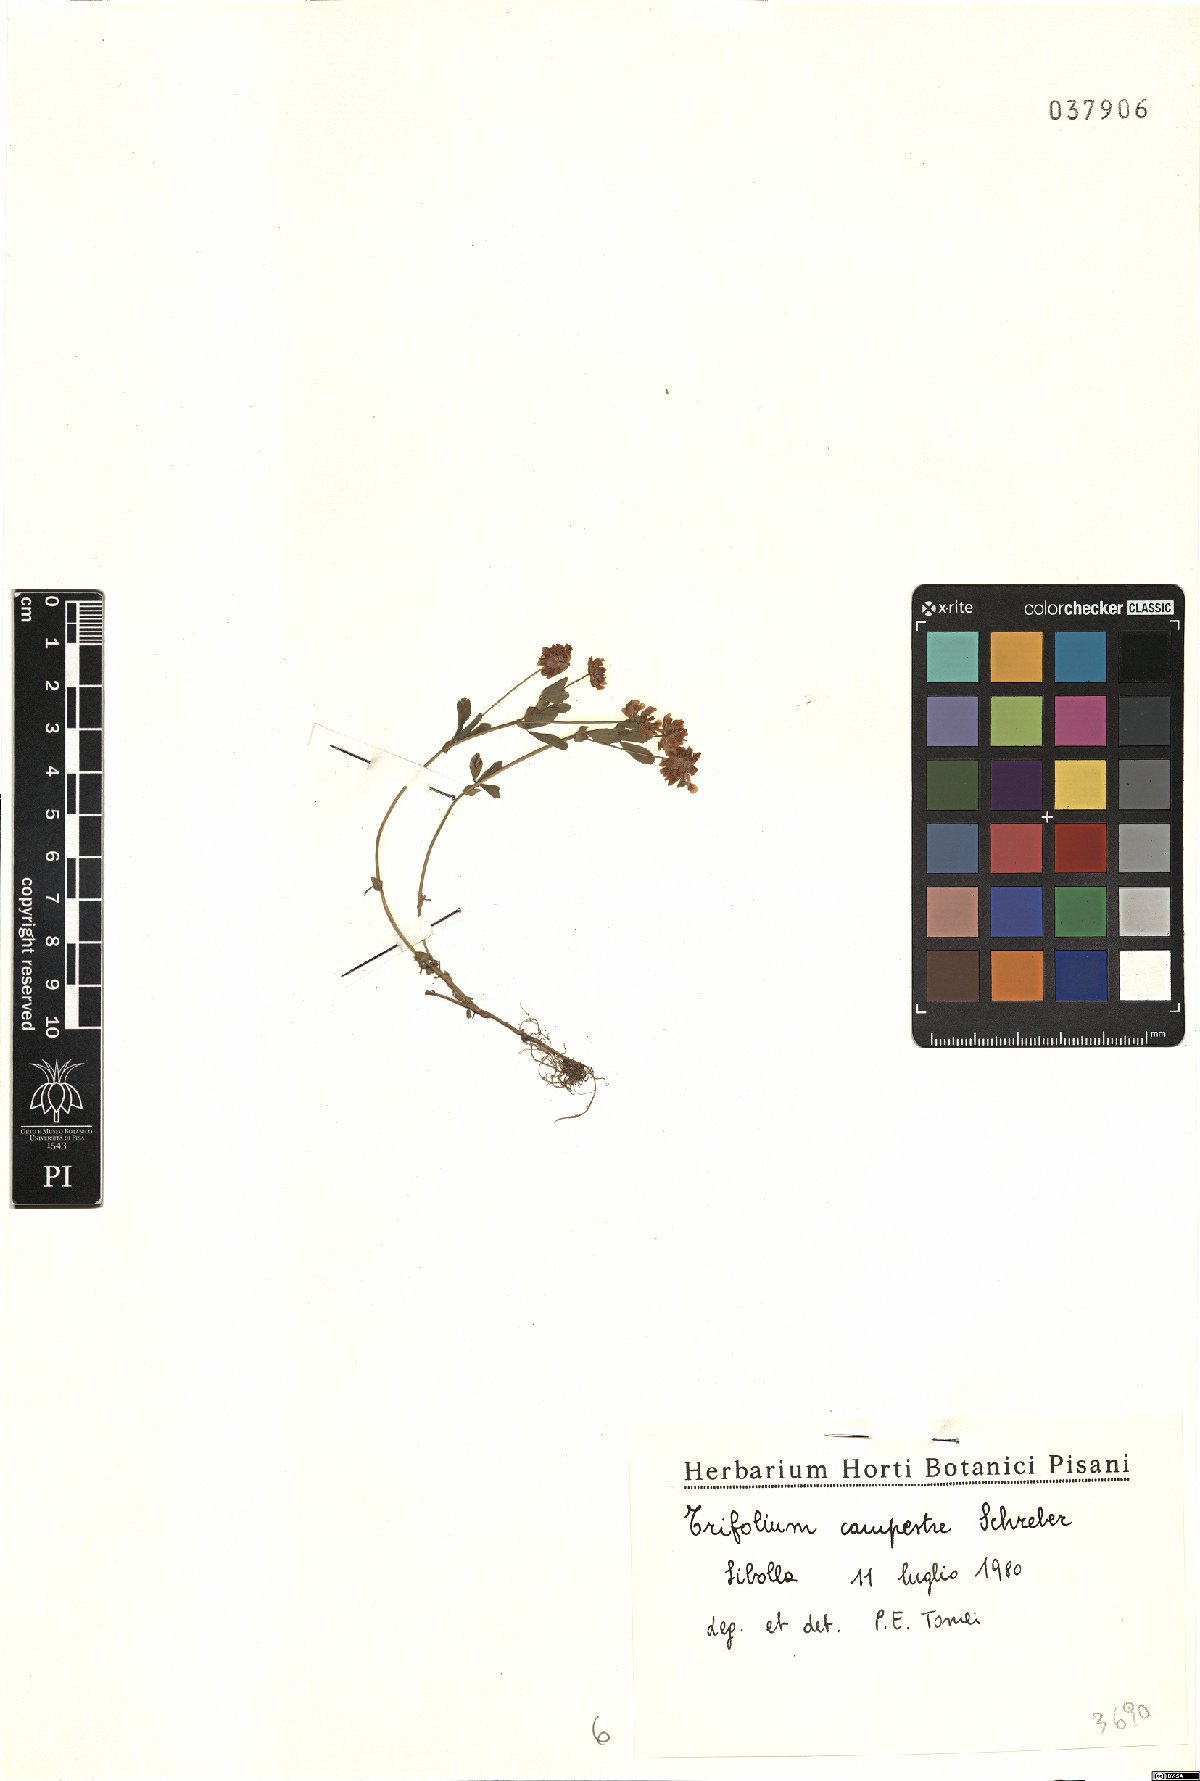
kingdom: Plantae
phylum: Tracheophyta
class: Magnoliopsida
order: Fabales
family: Fabaceae
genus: Trifolium
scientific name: Trifolium campestre
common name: Field clover
